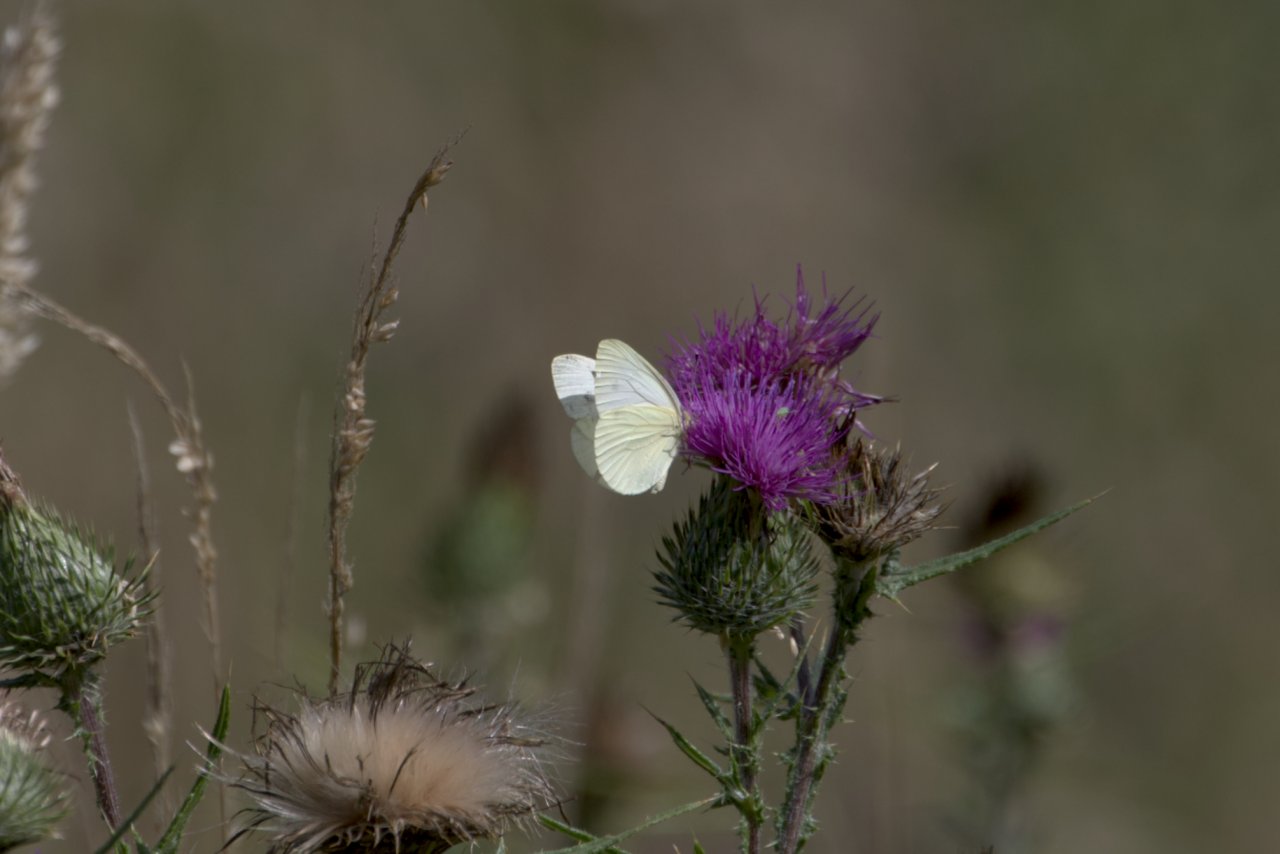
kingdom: Animalia
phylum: Arthropoda
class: Insecta
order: Lepidoptera
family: Pieridae
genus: Pieris
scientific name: Pieris marginalis
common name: Margined White
